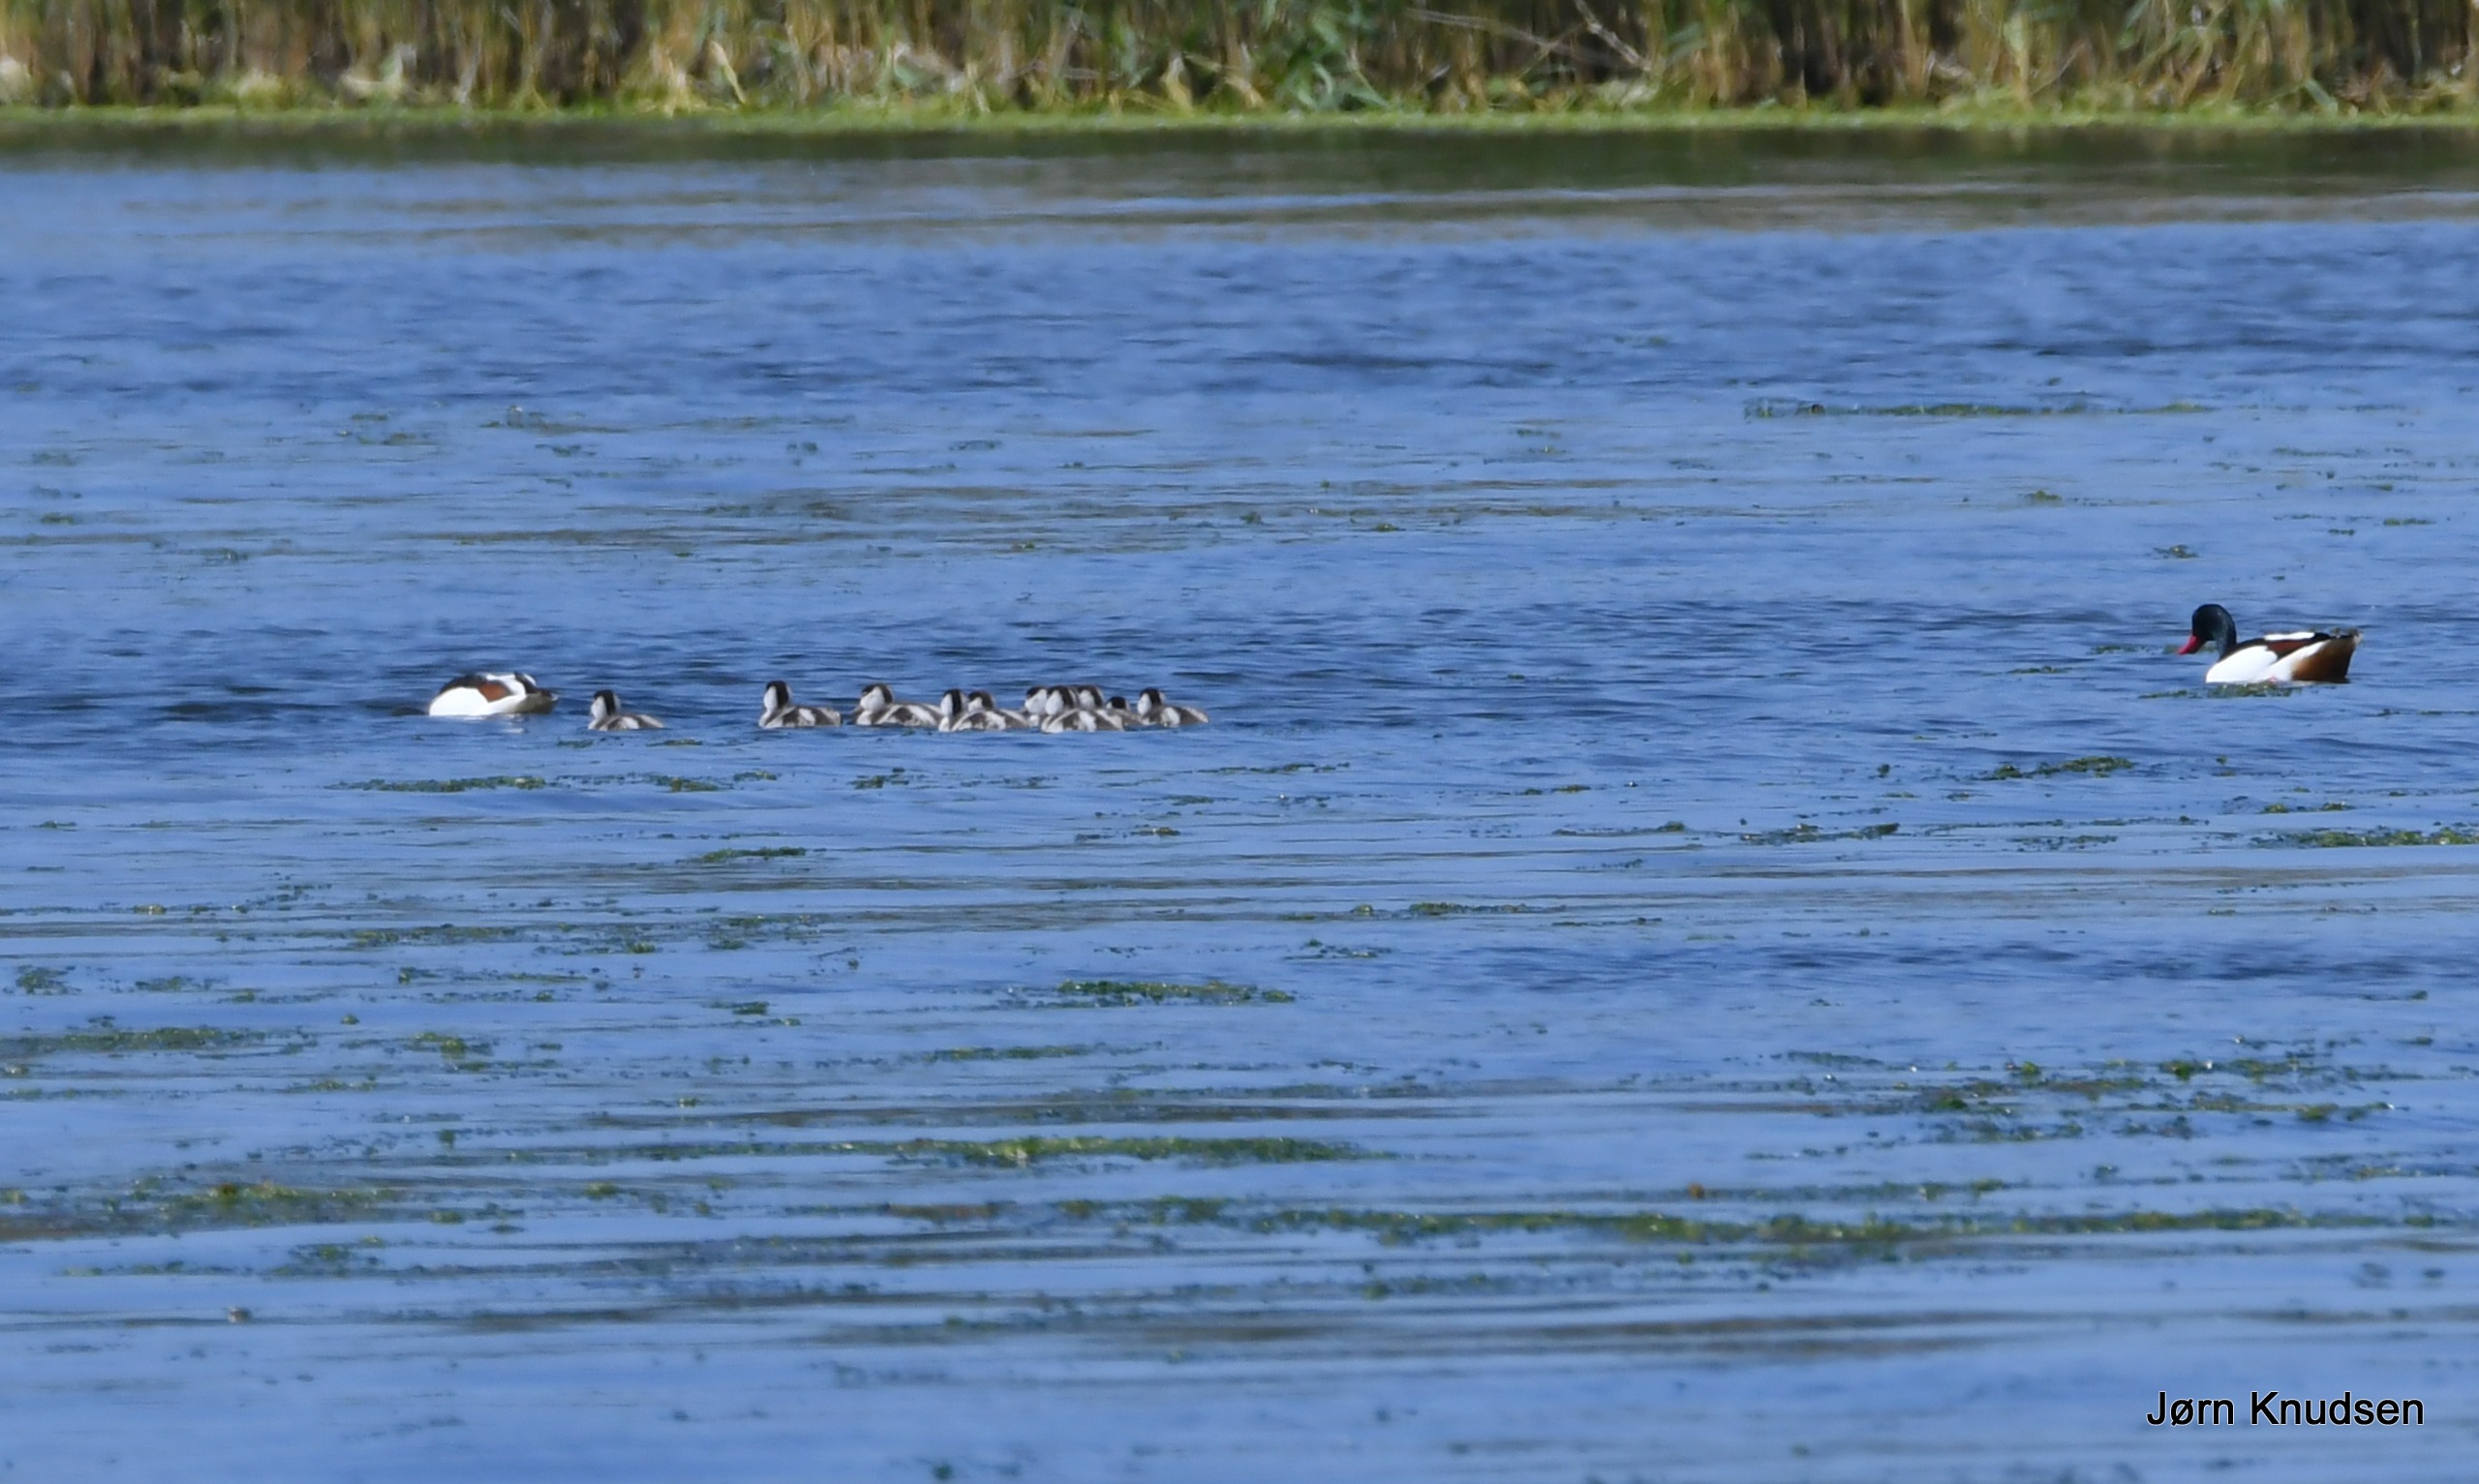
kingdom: Animalia
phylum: Chordata
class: Aves
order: Anseriformes
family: Anatidae
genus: Tadorna
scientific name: Tadorna tadorna
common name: Gravand
